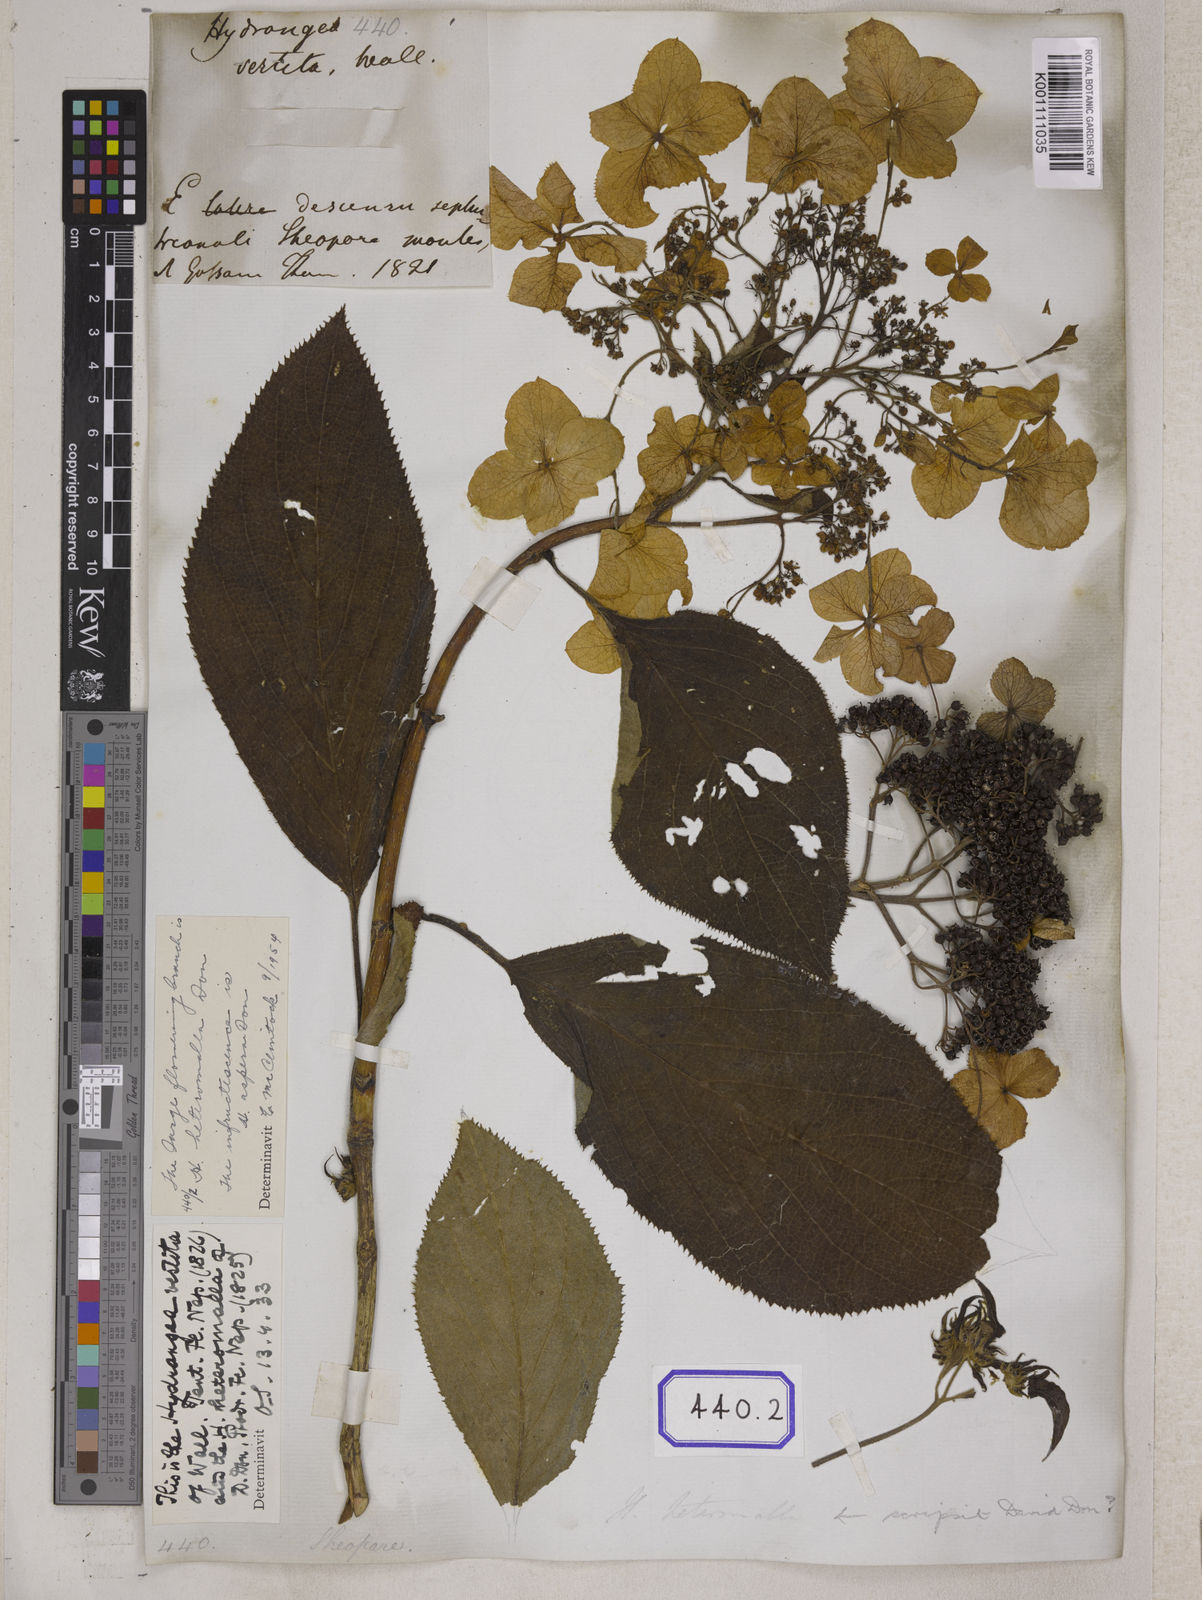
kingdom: Plantae
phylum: Tracheophyta
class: Magnoliopsida
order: Cornales
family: Hydrangeaceae
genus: Hydrangea
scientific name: Hydrangea heteromalla
